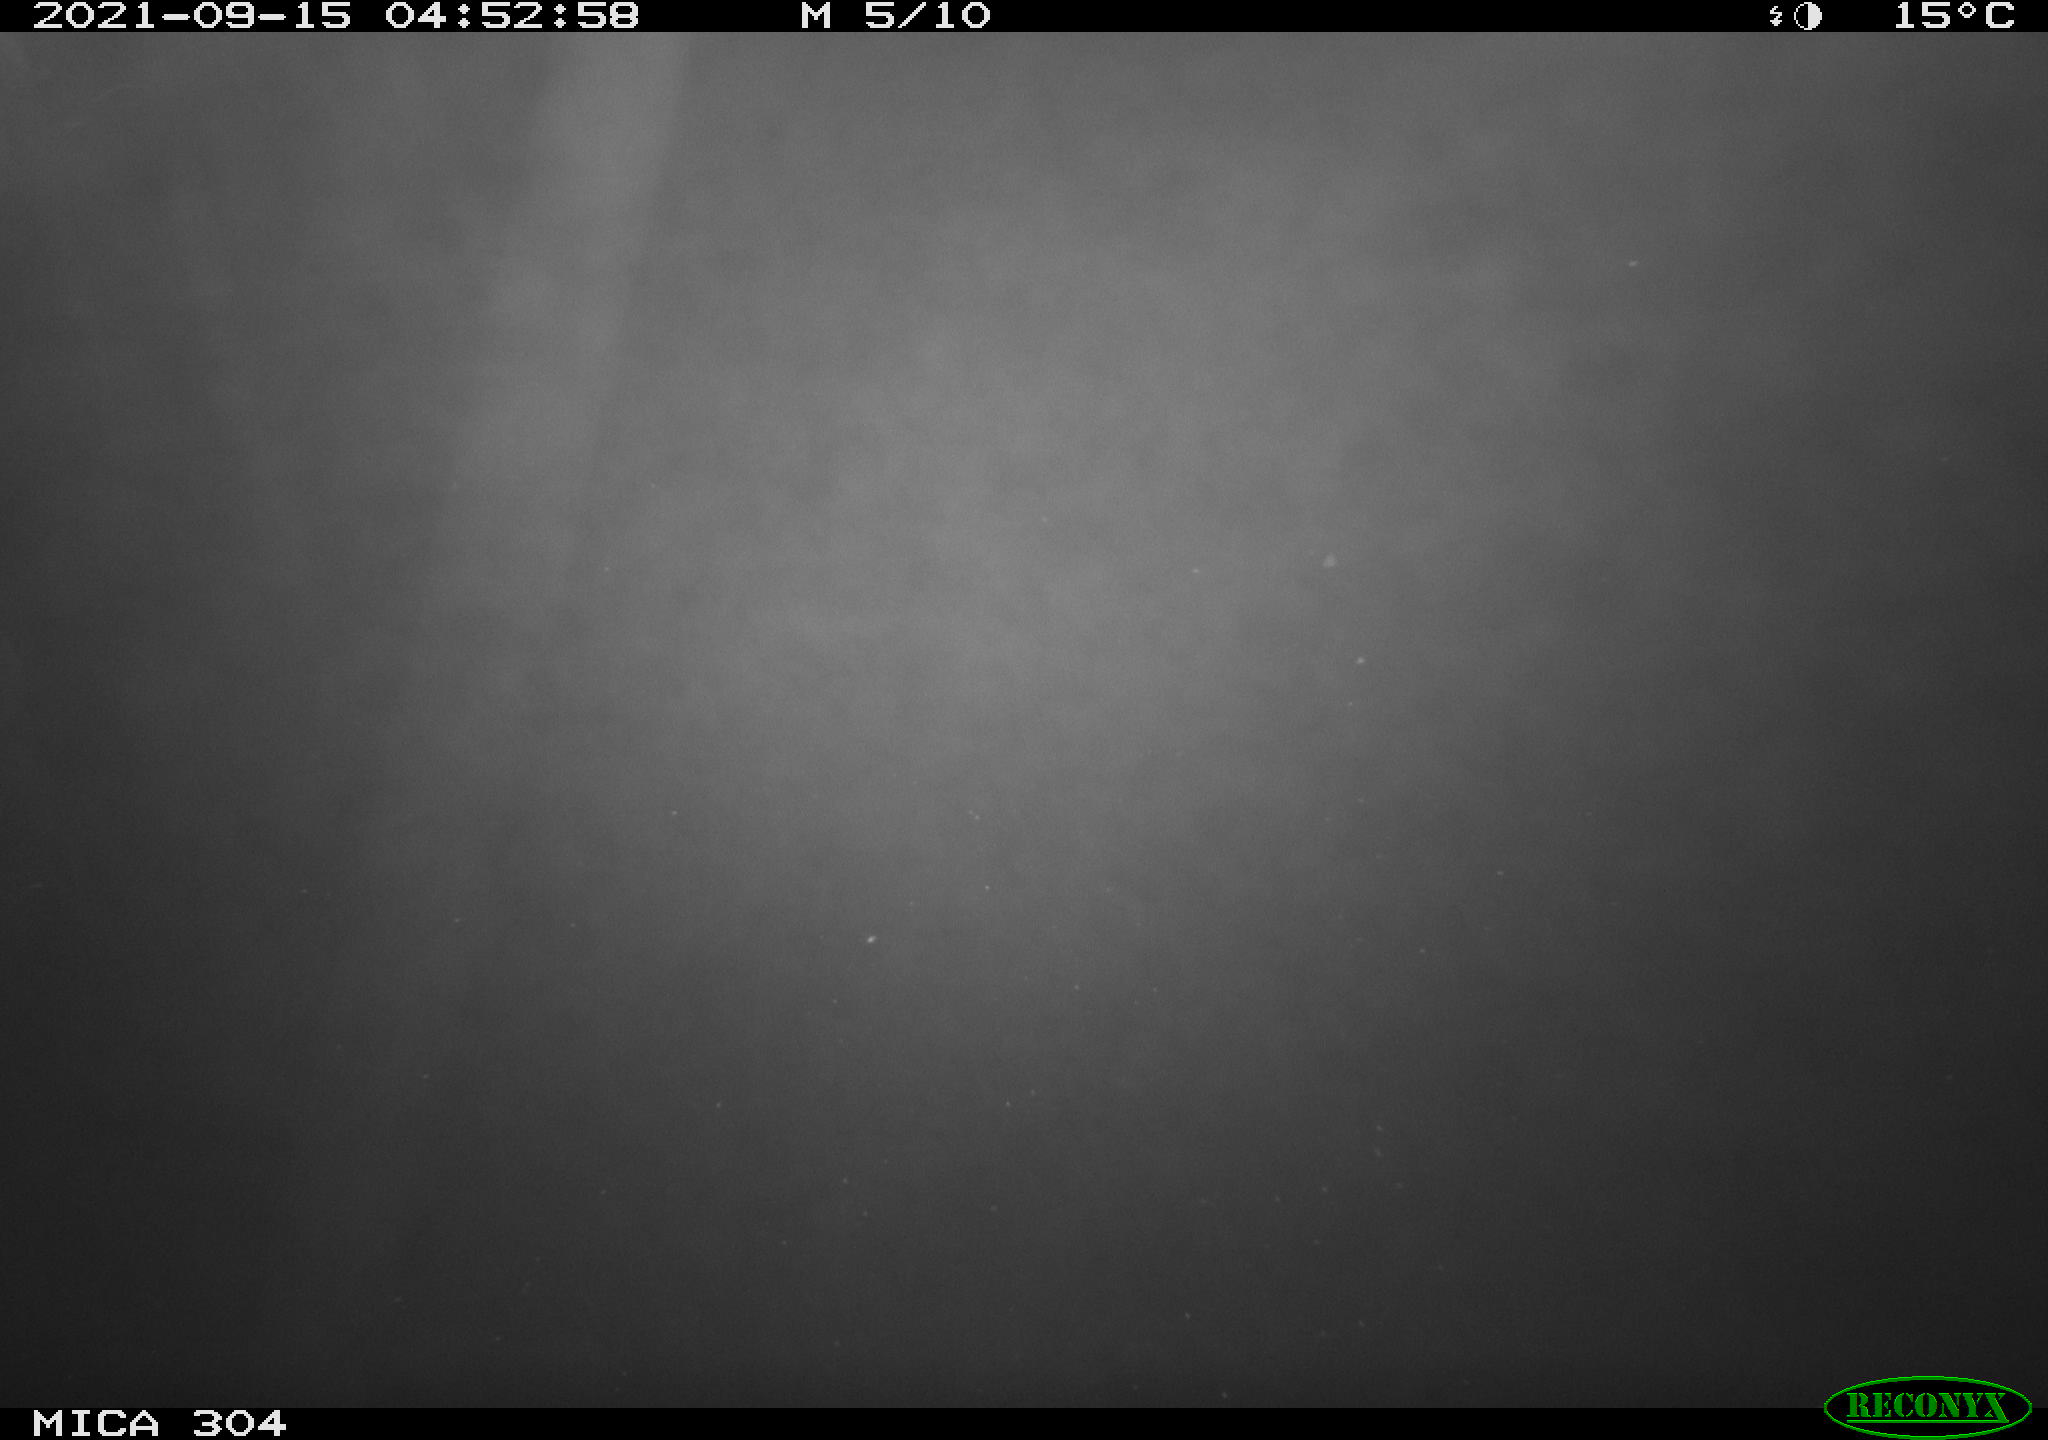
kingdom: Animalia
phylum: Chordata
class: Mammalia
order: Rodentia
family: Muridae
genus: Rattus
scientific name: Rattus norvegicus
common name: Brown rat
